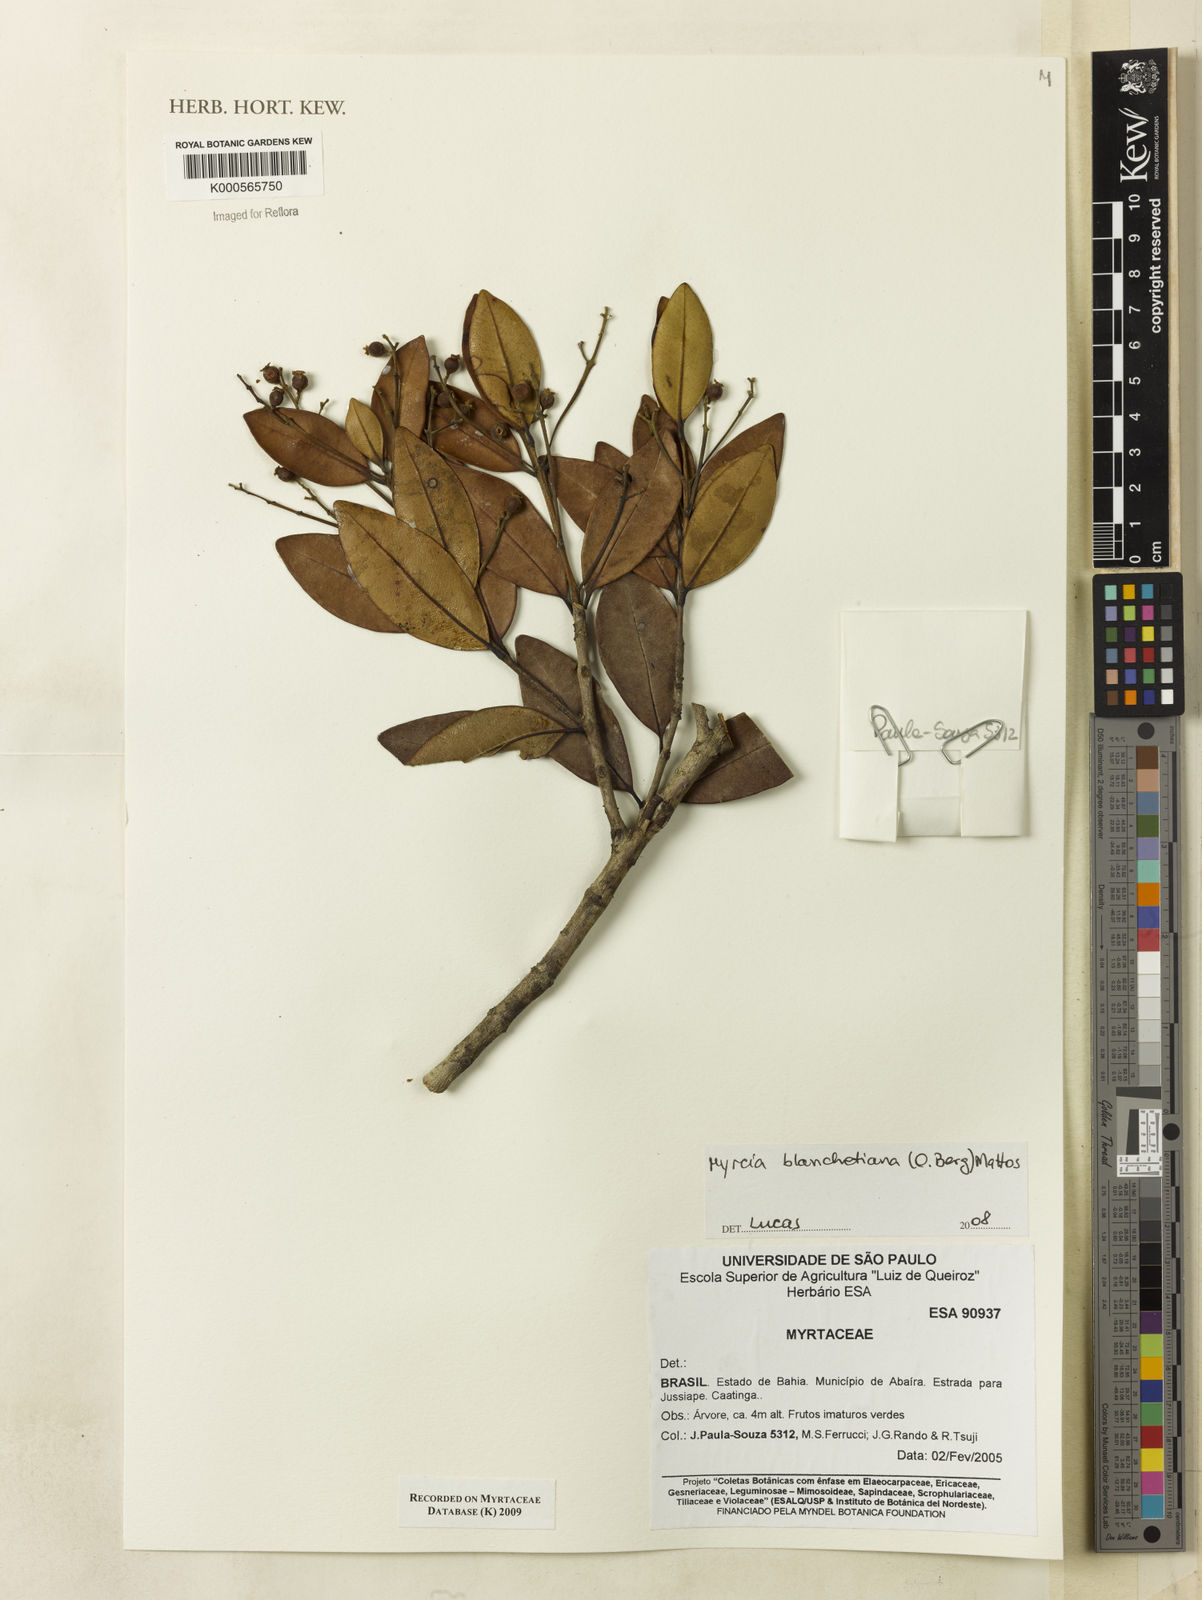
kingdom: Plantae
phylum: Tracheophyta
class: Magnoliopsida
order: Myrtales
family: Myrtaceae
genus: Myrcia
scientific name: Myrcia blanchetiana
